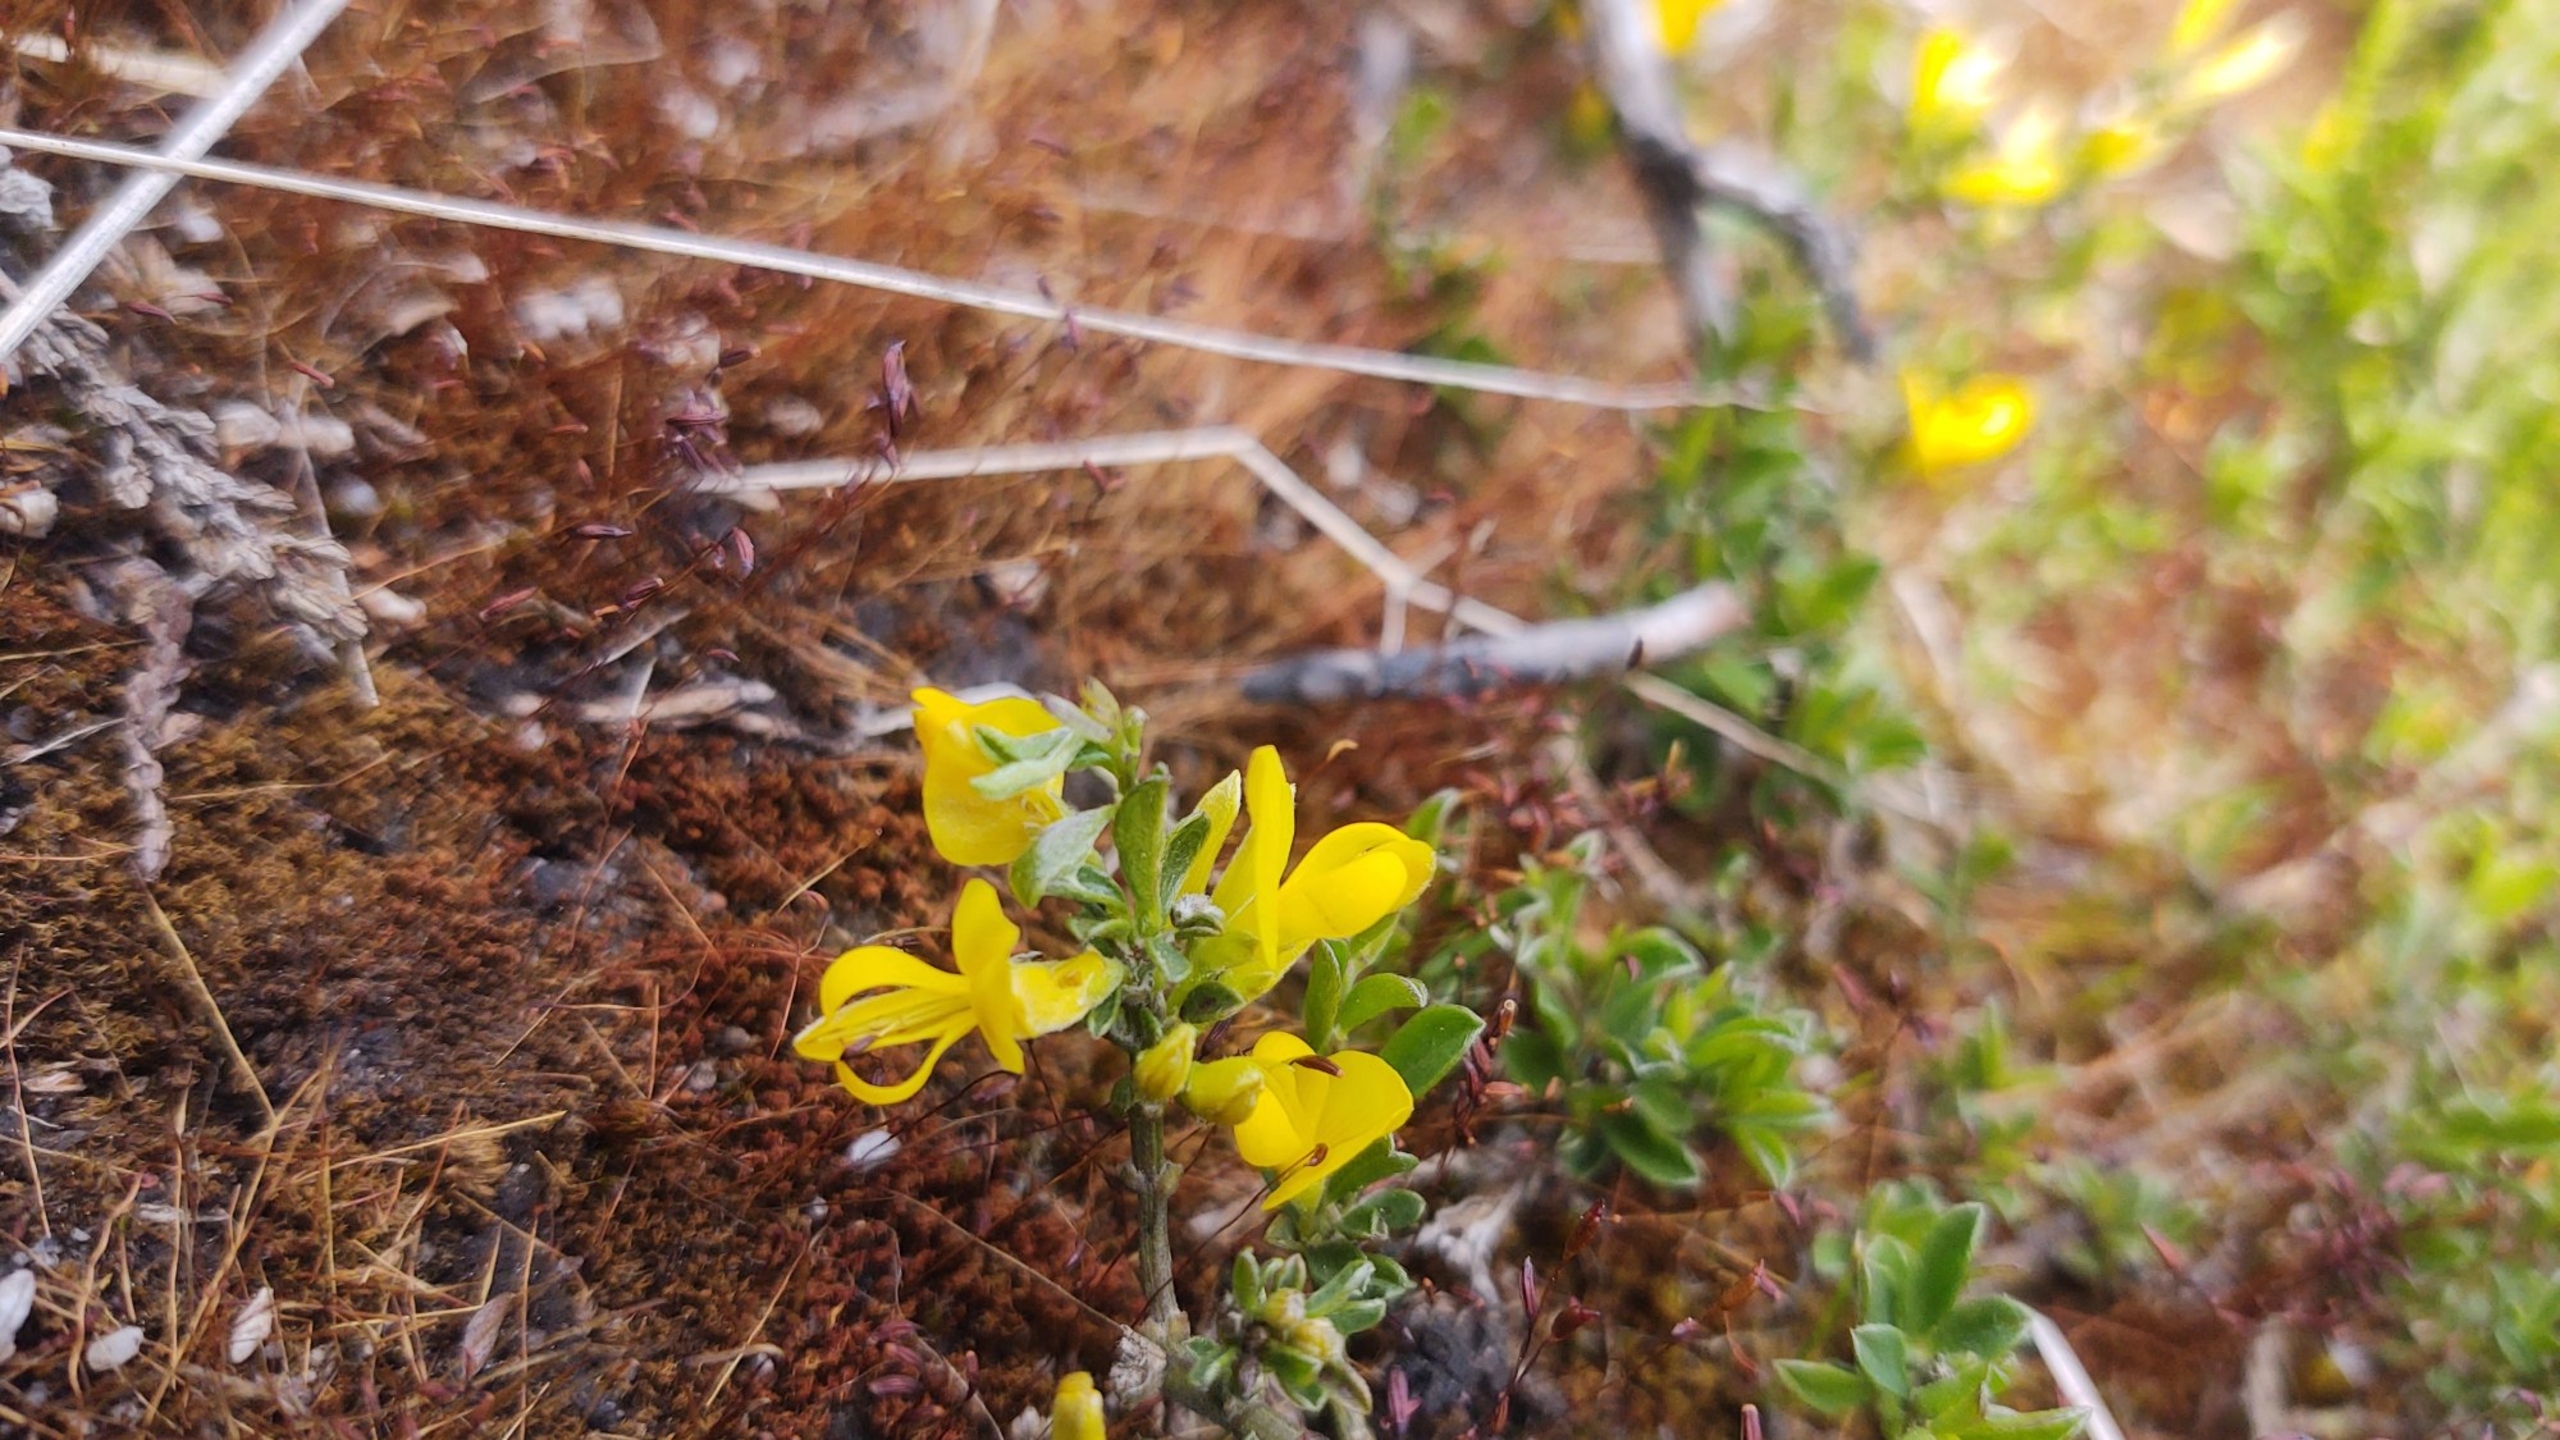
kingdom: Plantae
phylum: Tracheophyta
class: Magnoliopsida
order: Fabales
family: Fabaceae
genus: Genista
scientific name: Genista pilosa
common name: Håret visse
